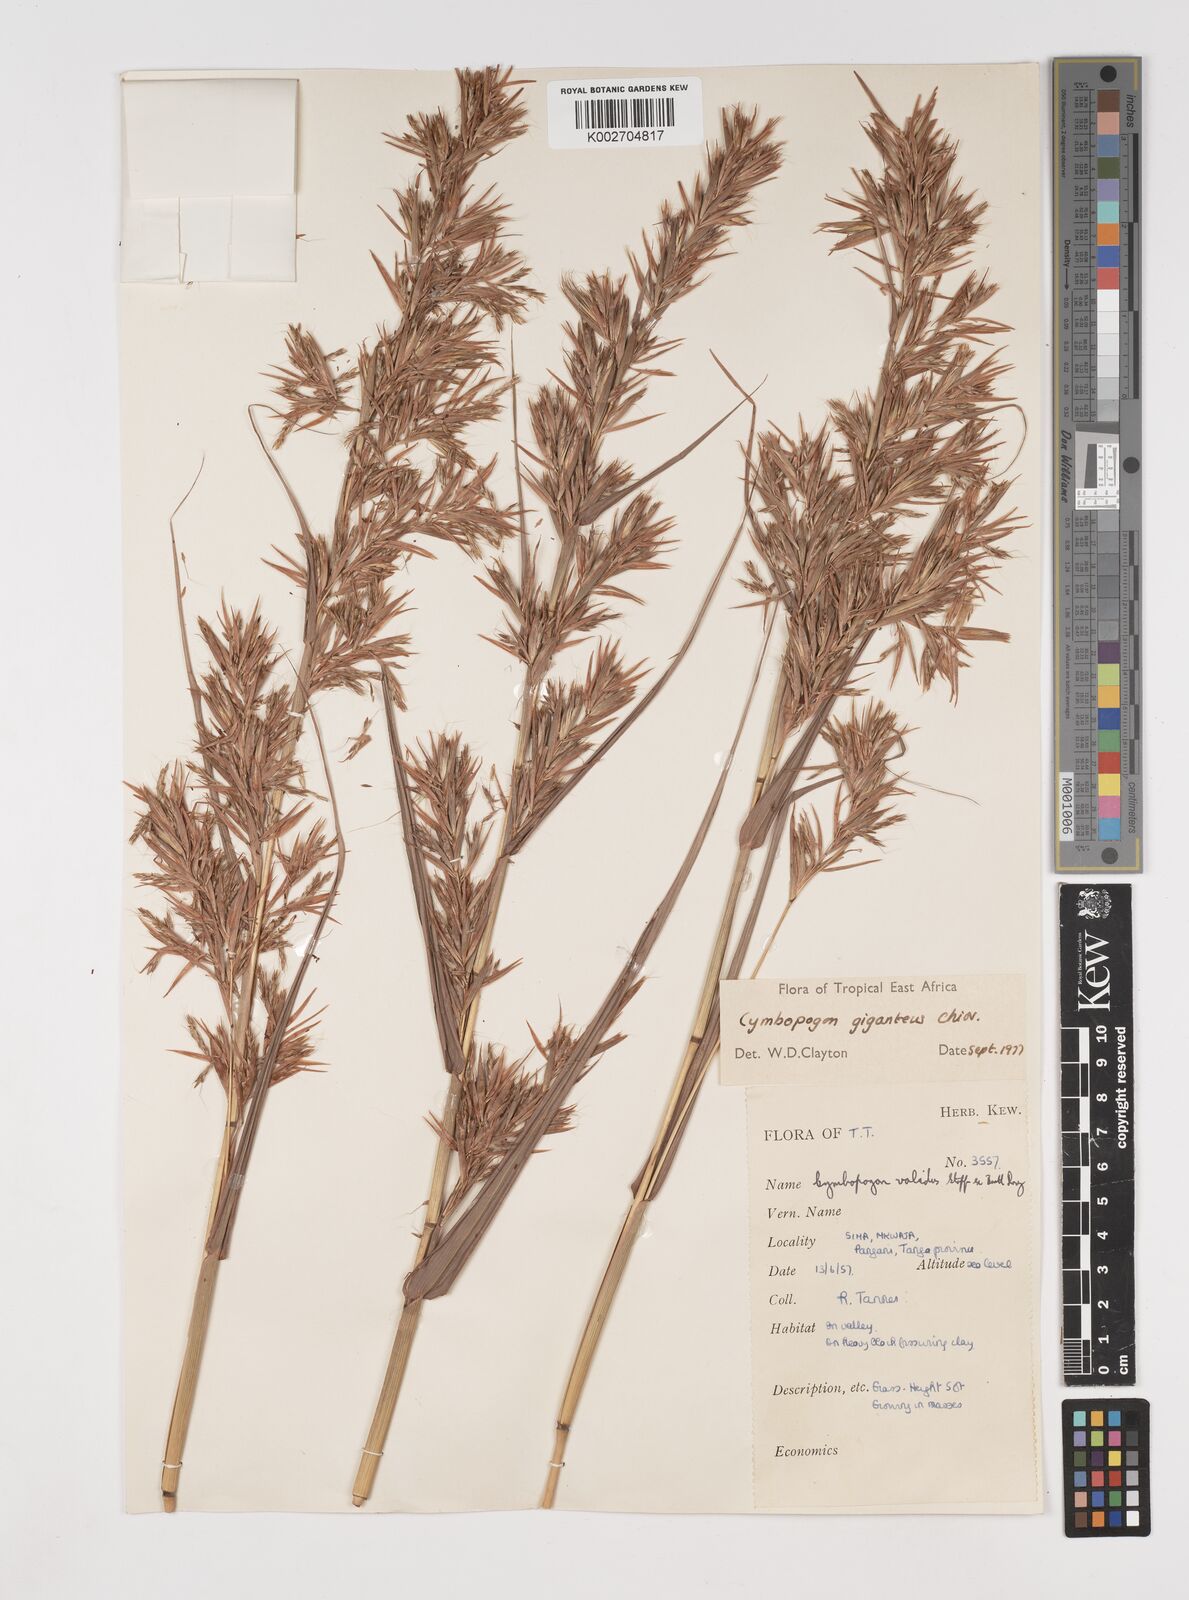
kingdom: Plantae
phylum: Tracheophyta
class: Liliopsida
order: Poales
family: Poaceae
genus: Cymbopogon
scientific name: Cymbopogon giganteus
